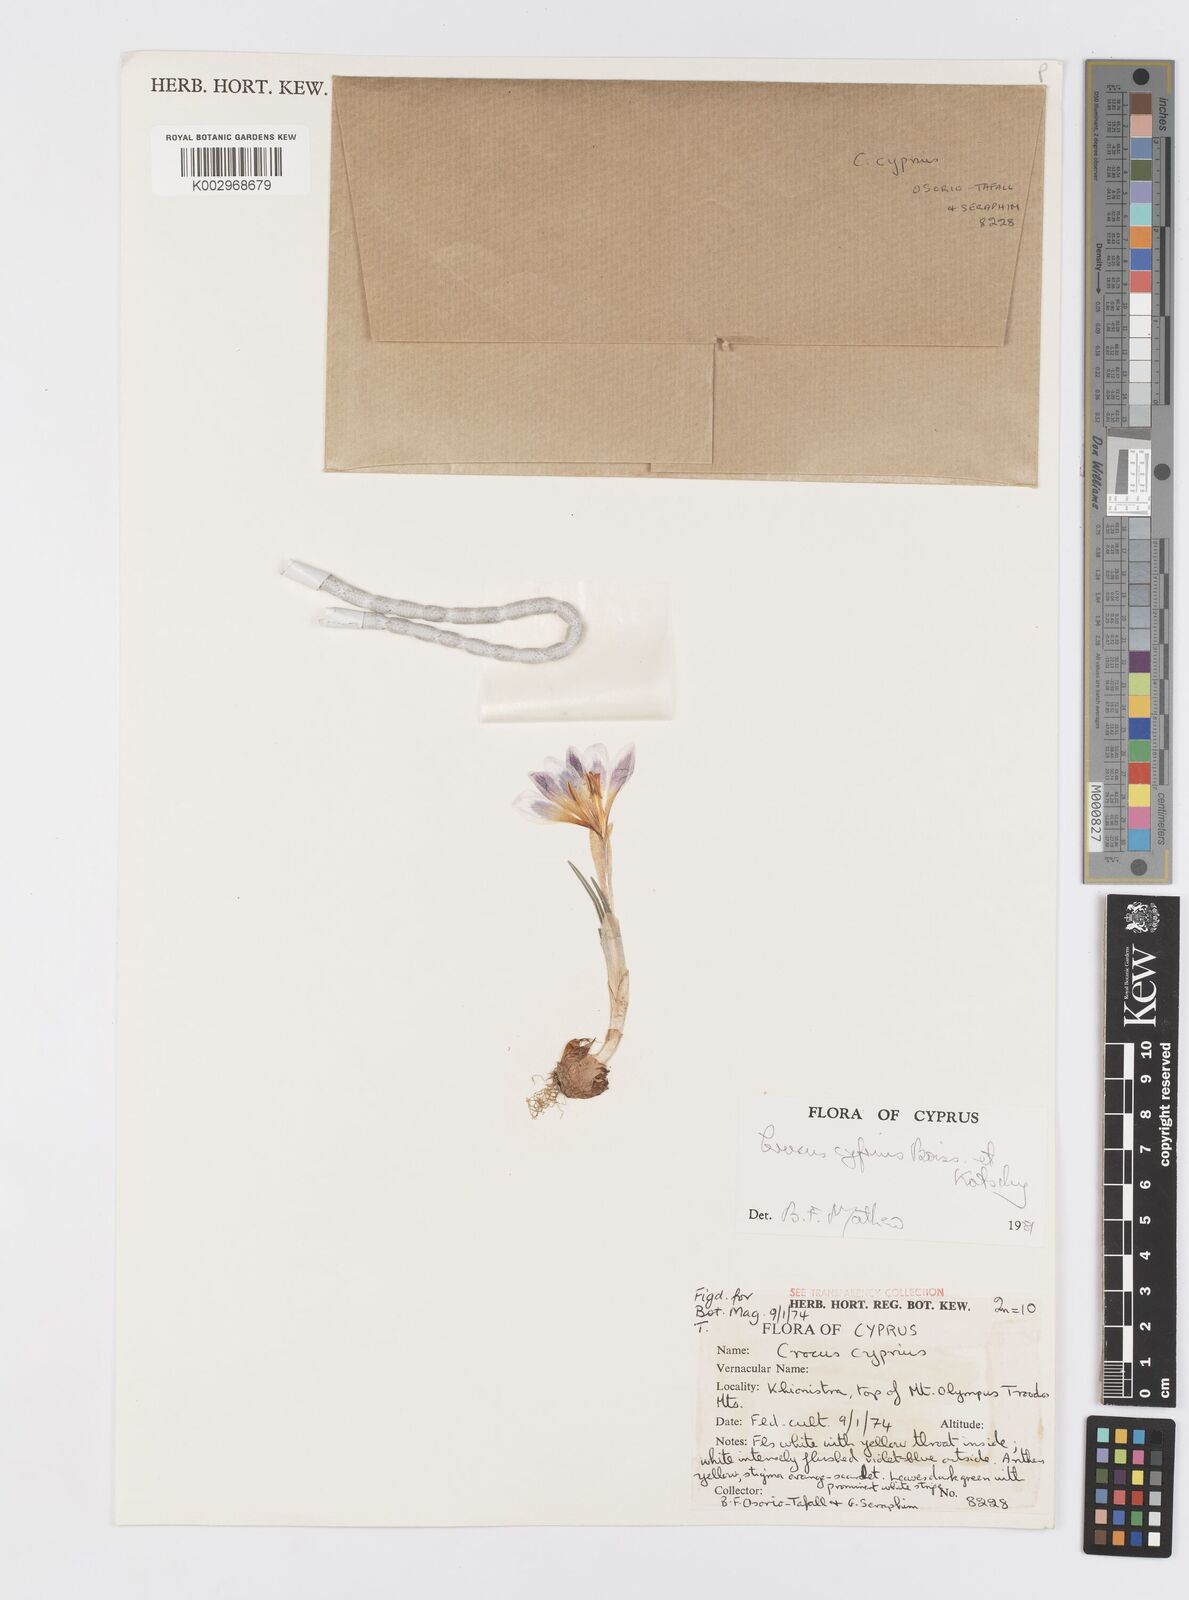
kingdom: Plantae
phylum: Tracheophyta
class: Liliopsida
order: Asparagales
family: Iridaceae
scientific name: Iridaceae
